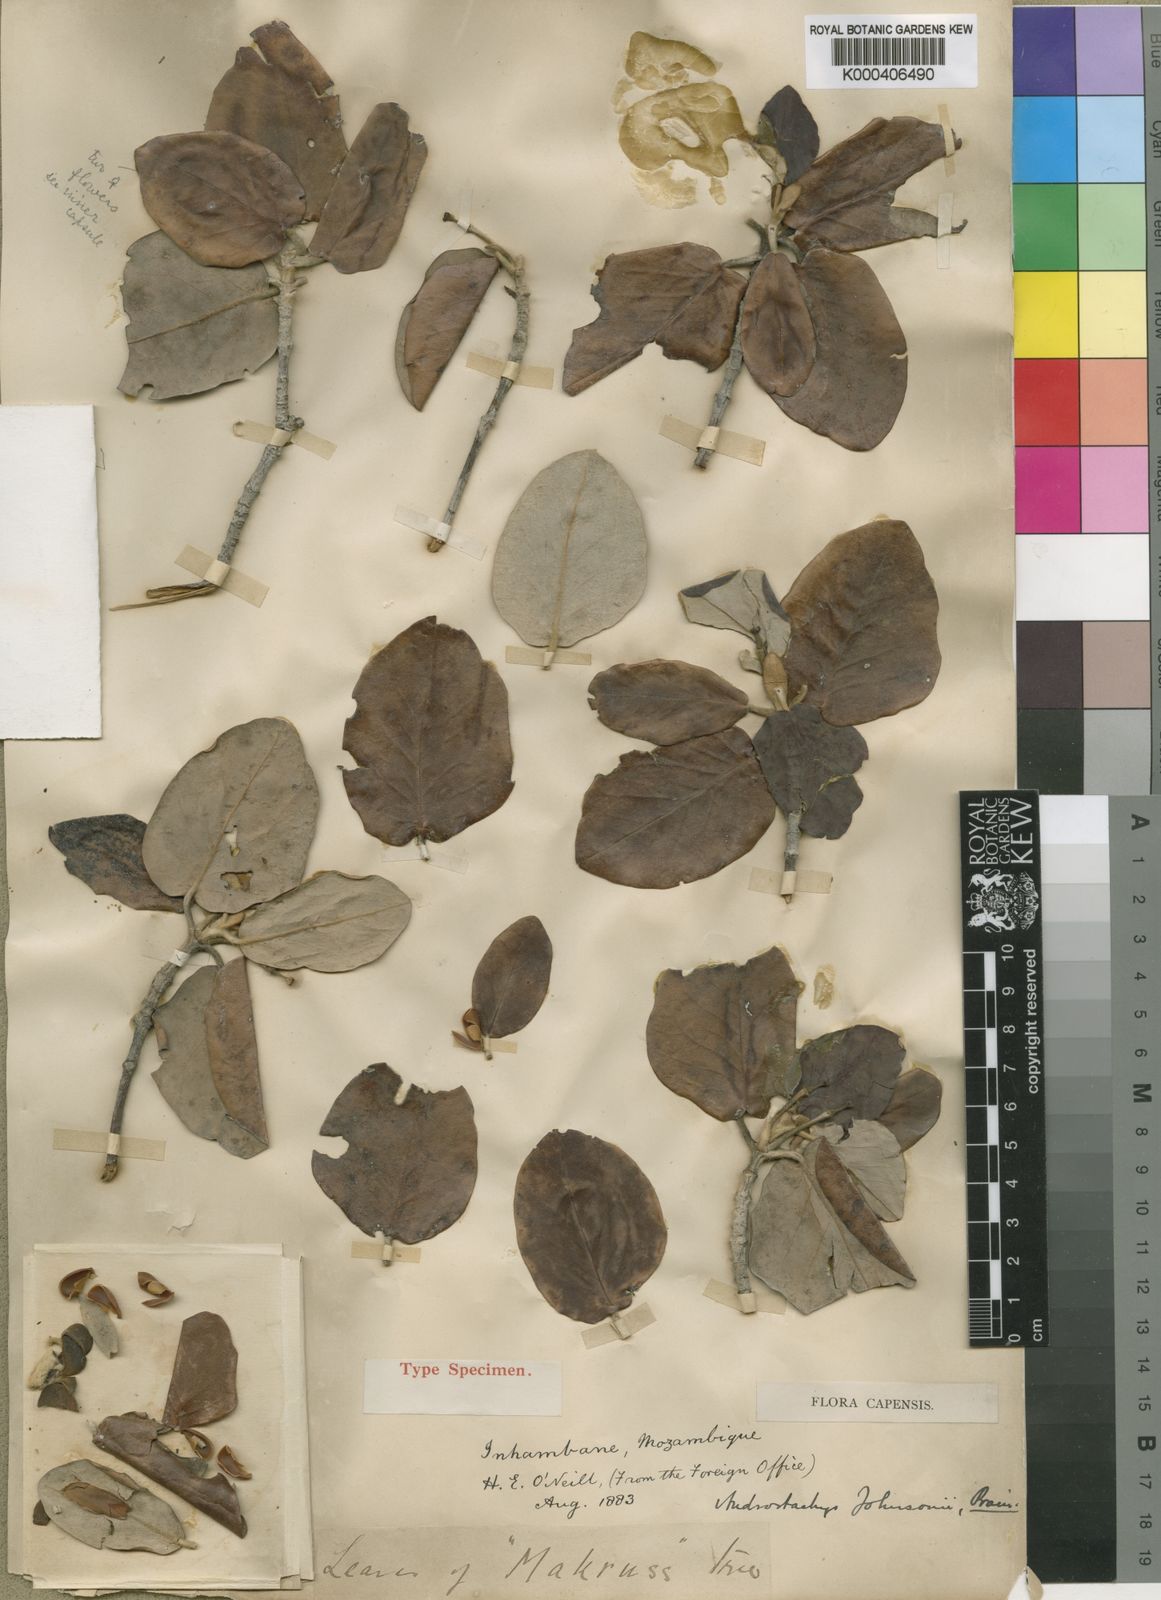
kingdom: Plantae
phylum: Tracheophyta
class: Magnoliopsida
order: Malpighiales
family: Picrodendraceae
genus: Androstachys
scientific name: Androstachys johnsonii
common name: Lebombo ironwood
